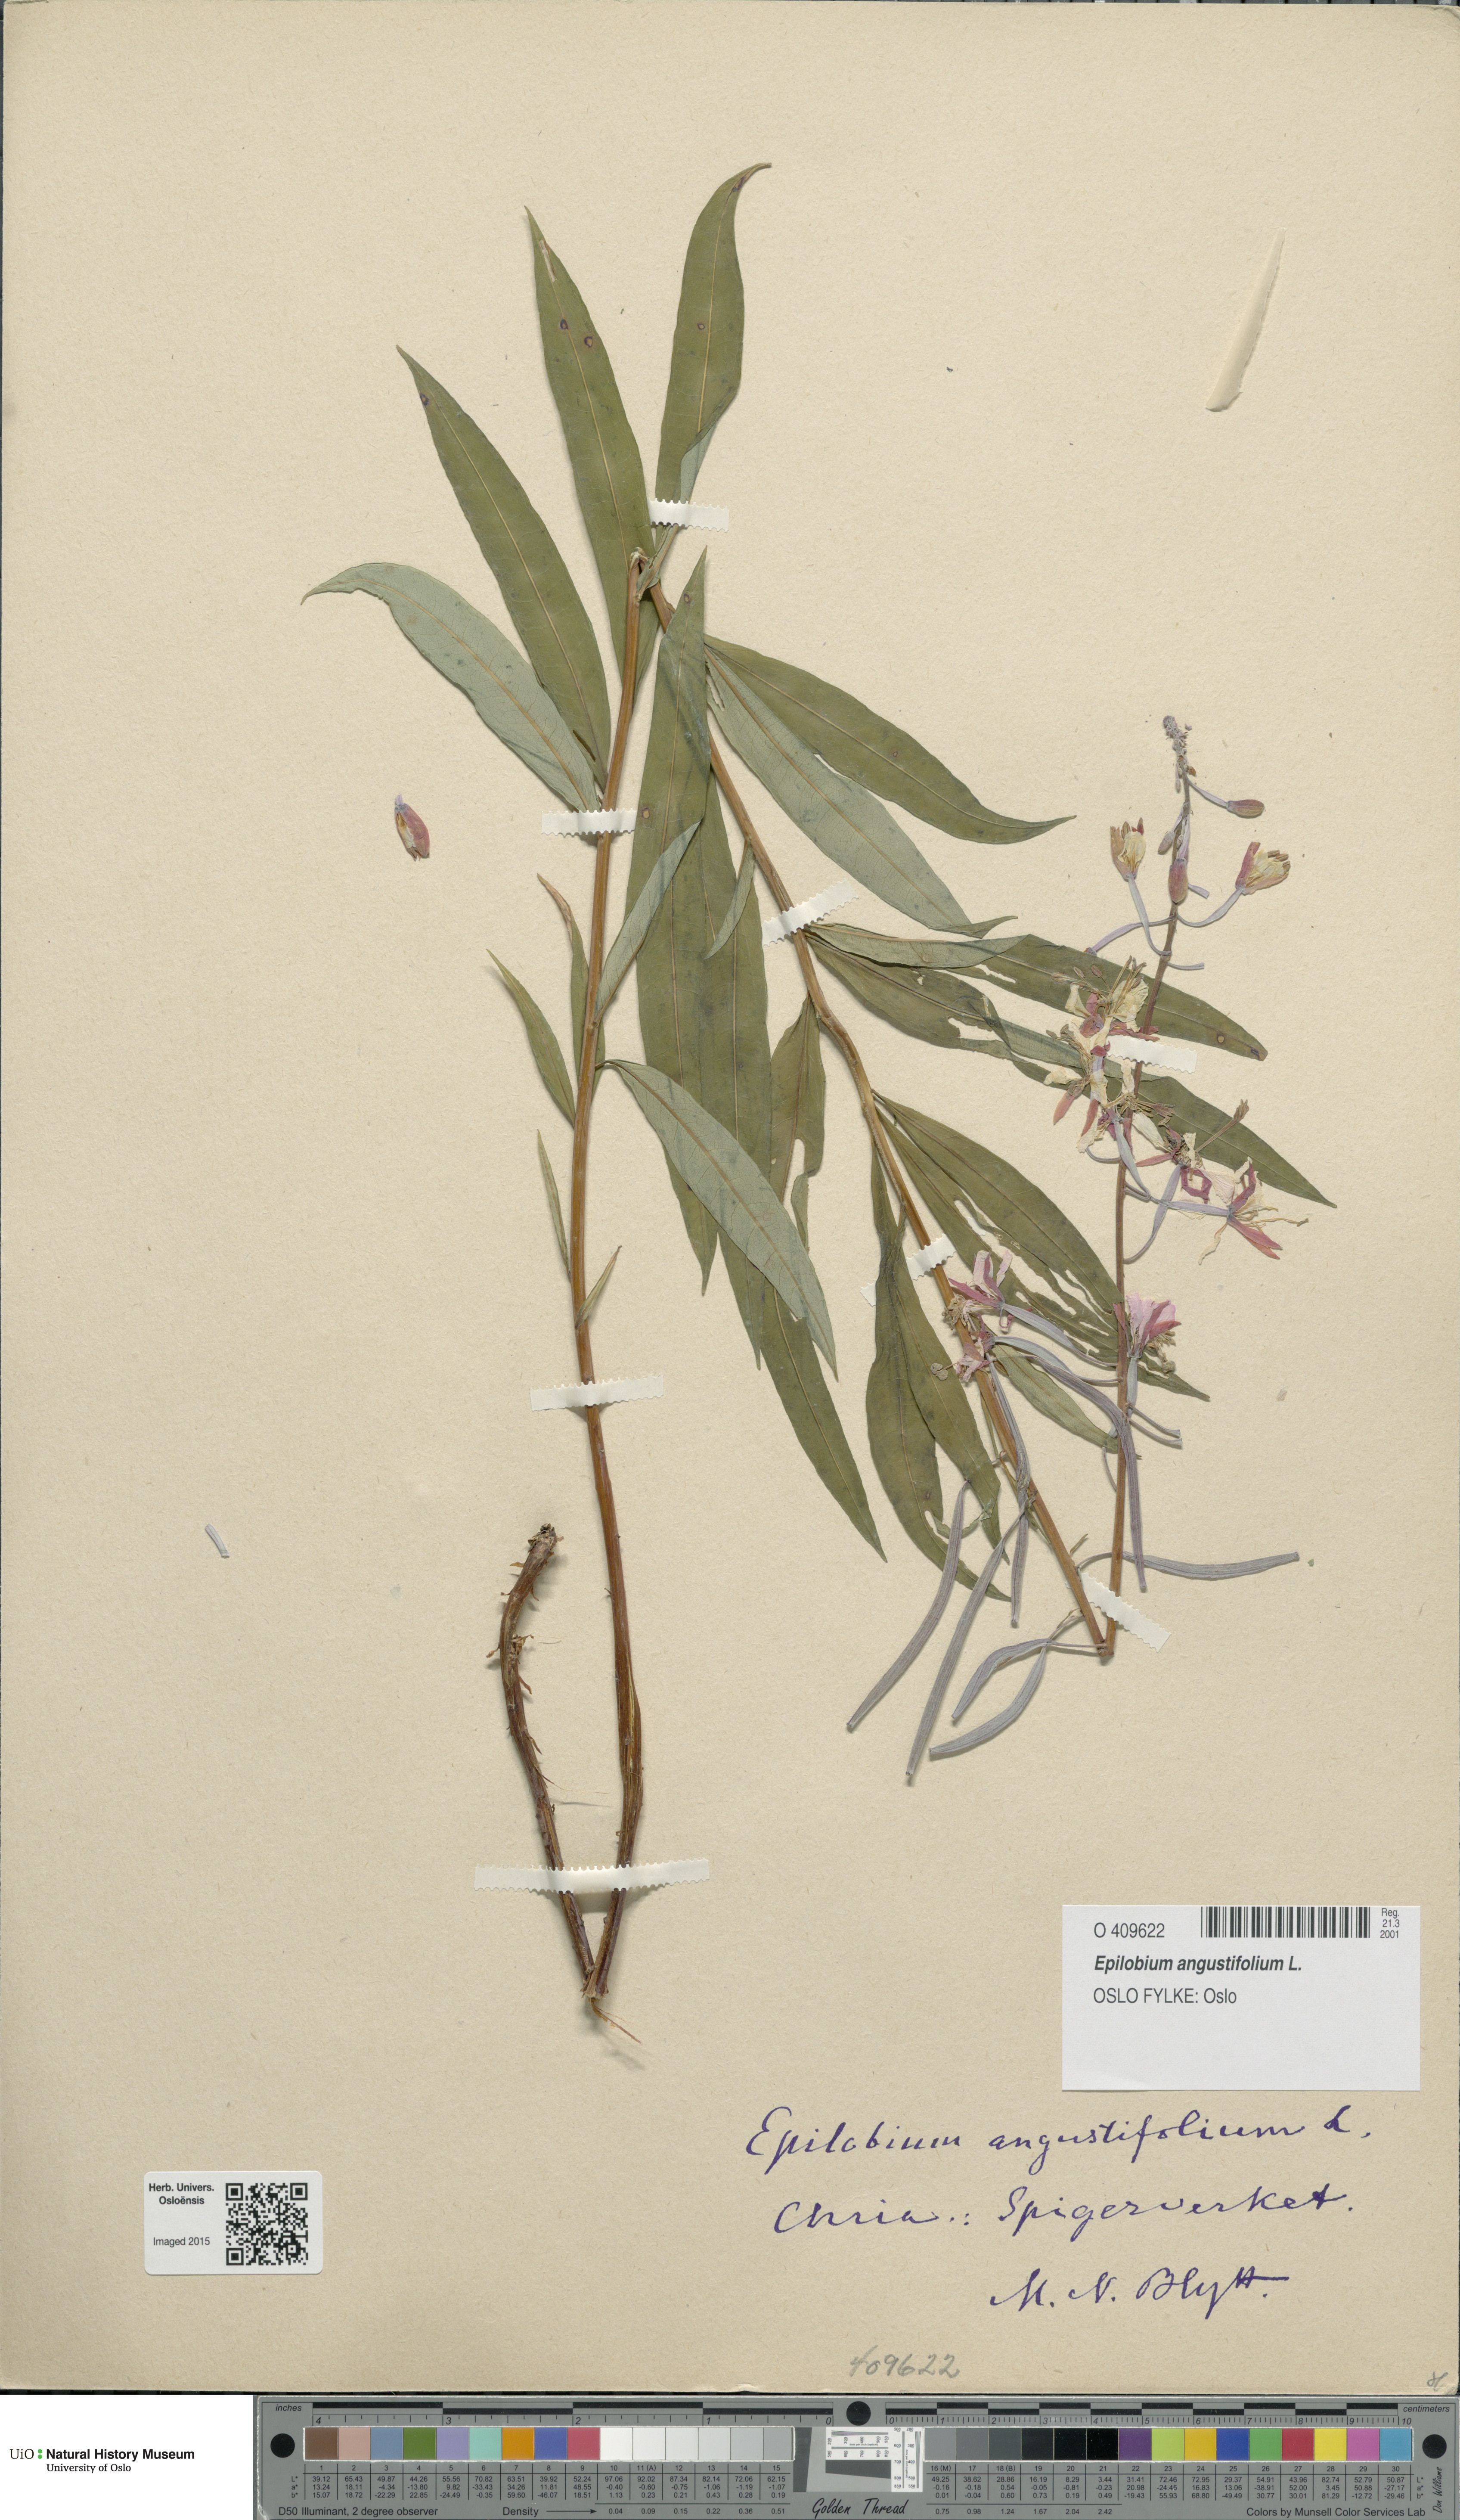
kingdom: Plantae
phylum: Tracheophyta
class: Magnoliopsida
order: Myrtales
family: Onagraceae
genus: Chamaenerion
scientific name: Chamaenerion angustifolium
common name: Fireweed
